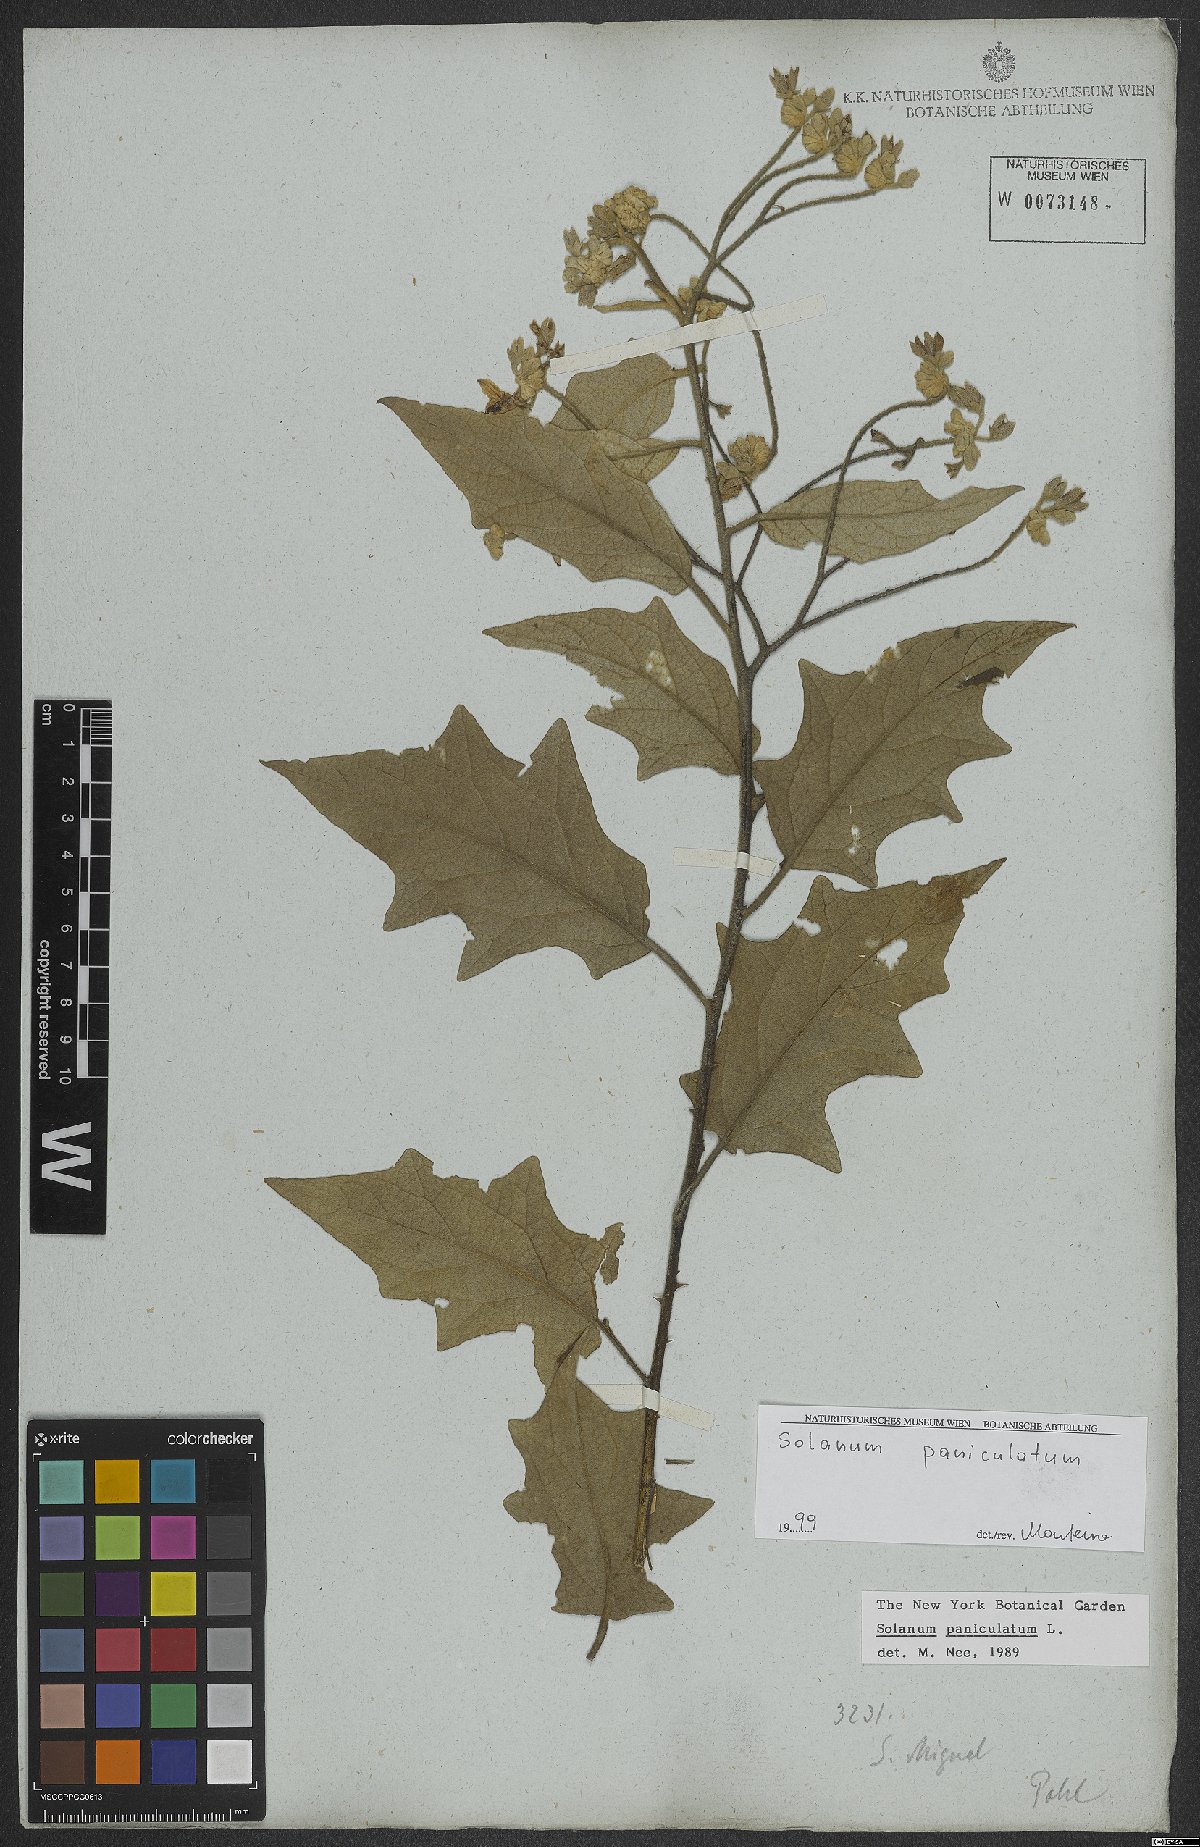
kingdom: Plantae
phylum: Tracheophyta
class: Magnoliopsida
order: Solanales
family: Solanaceae
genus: Solanum
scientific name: Solanum paniculatum
